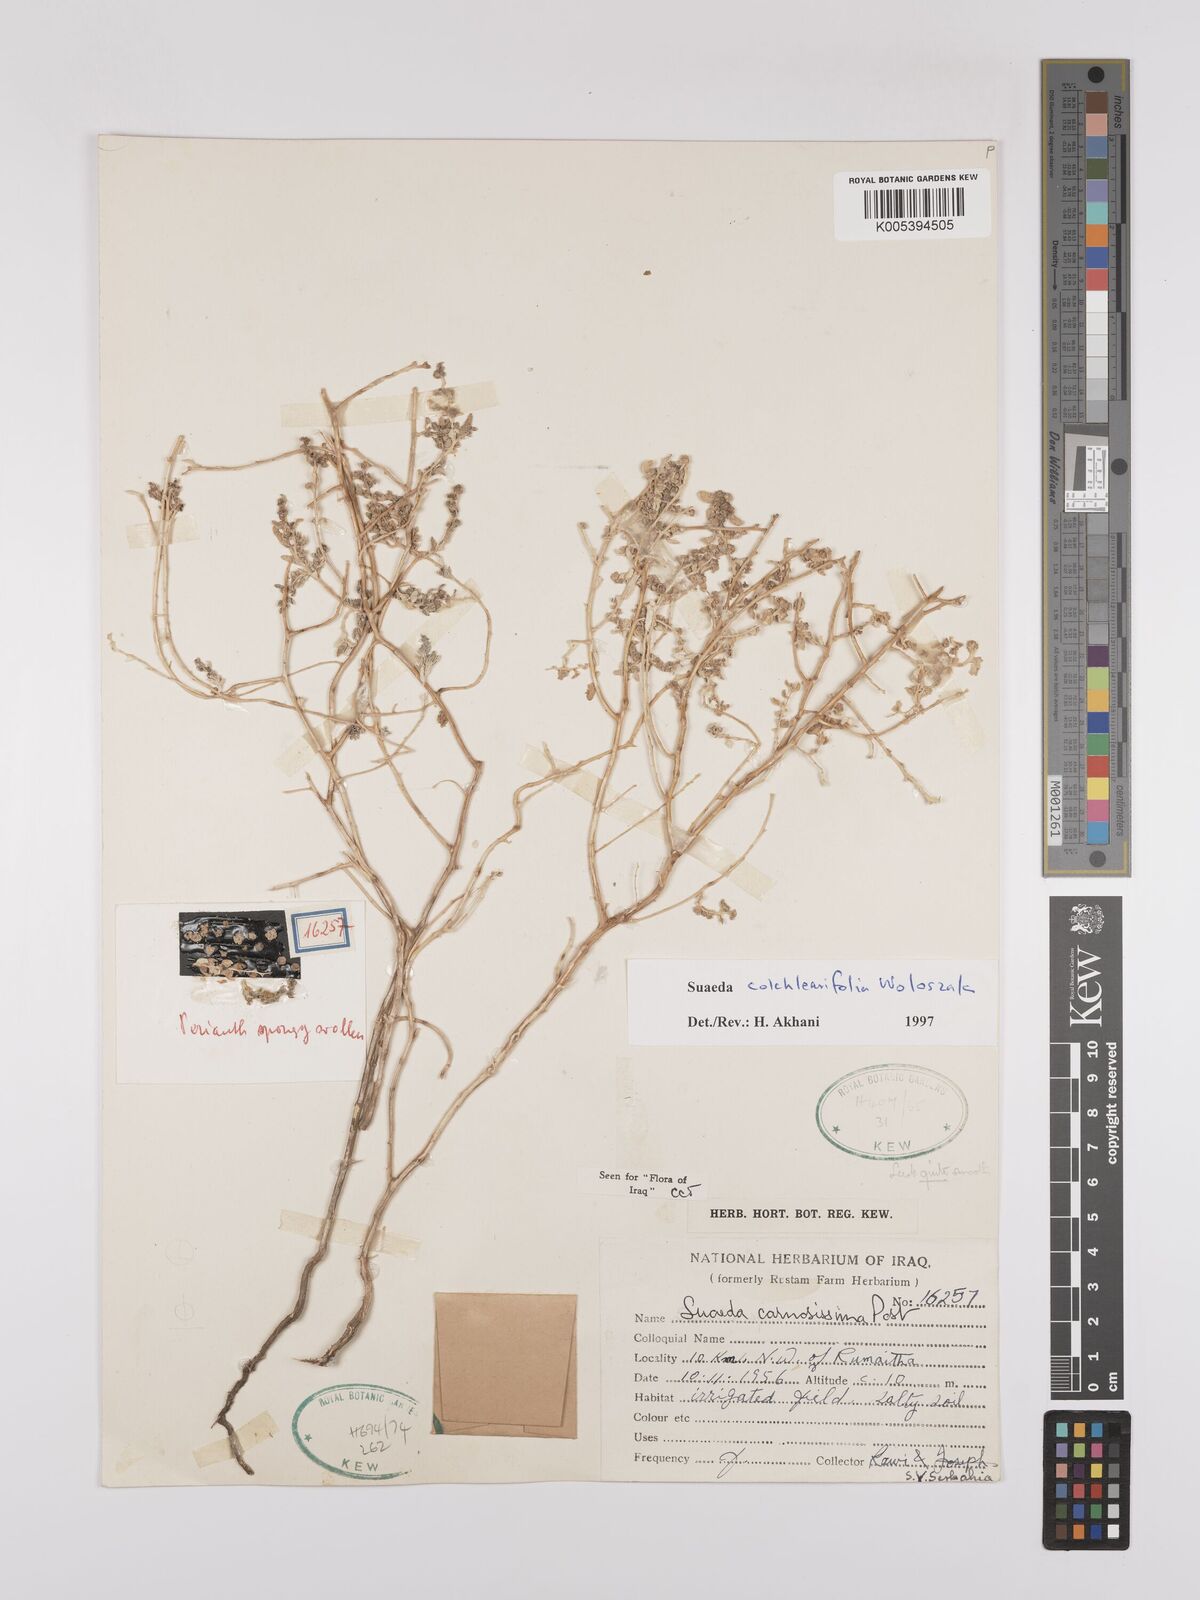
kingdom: Plantae
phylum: Tracheophyta
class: Magnoliopsida
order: Caryophyllales
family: Amaranthaceae
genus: Suaeda
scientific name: Suaeda carnosissima
